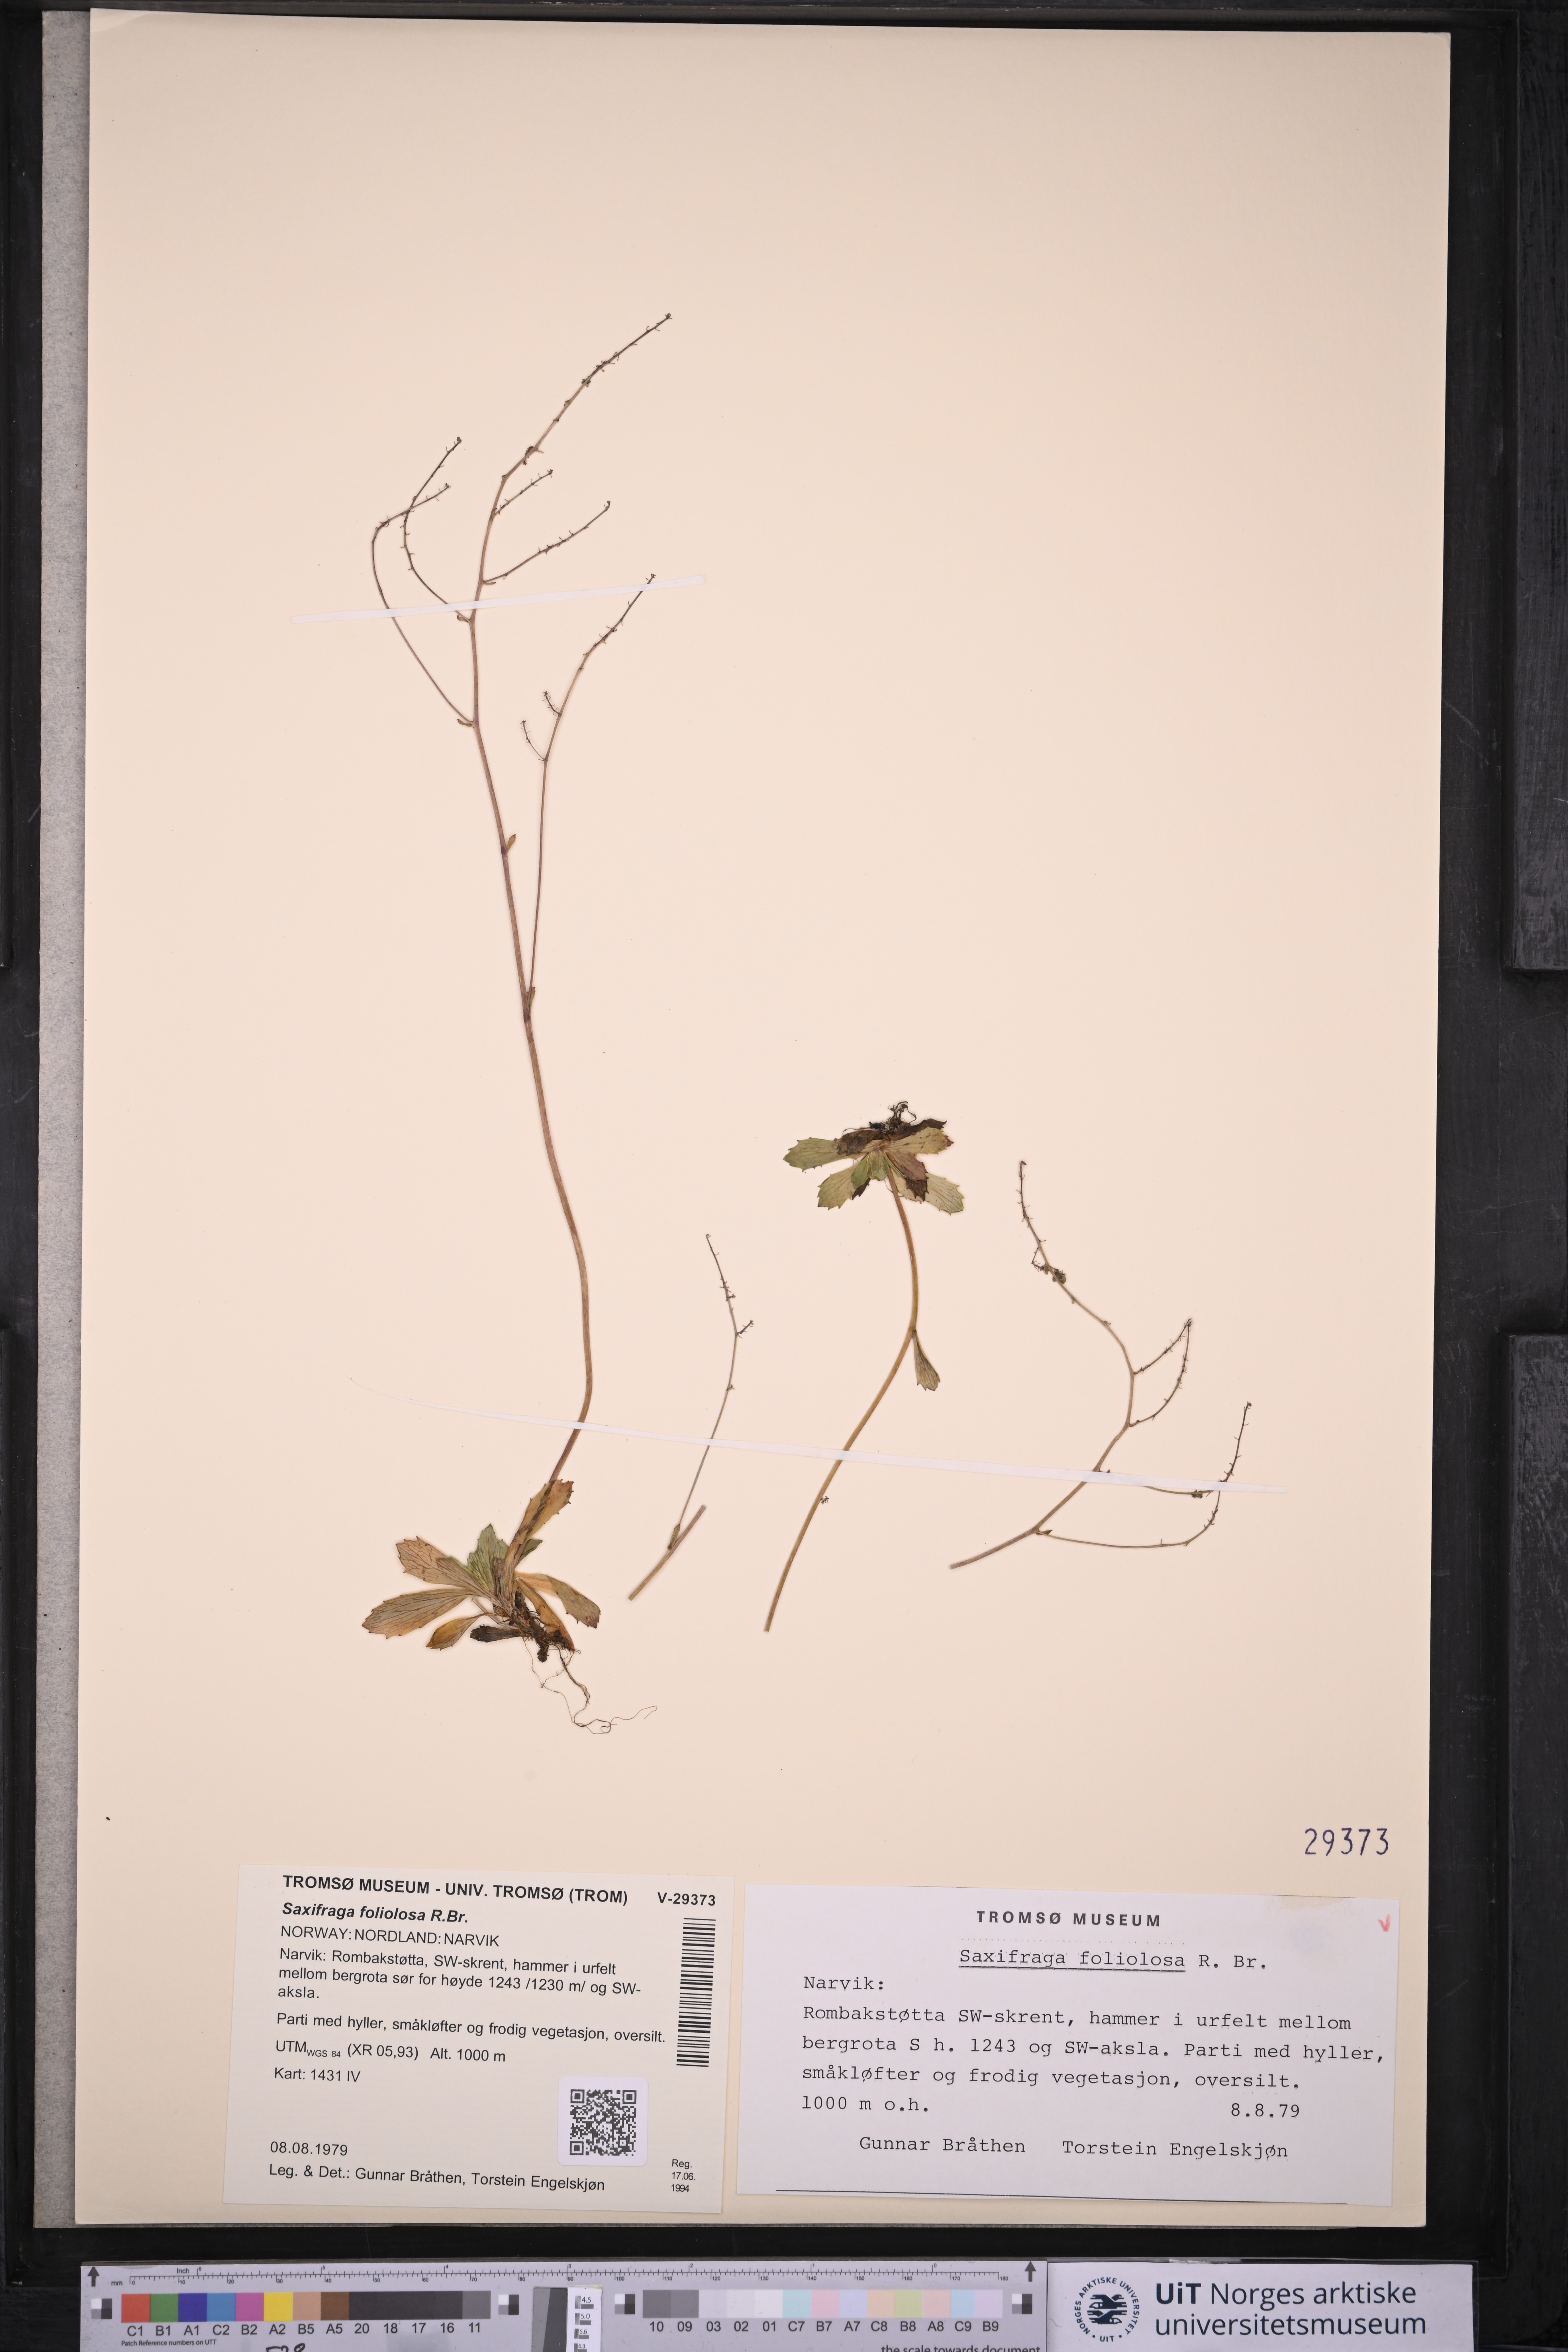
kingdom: Plantae
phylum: Tracheophyta
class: Magnoliopsida
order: Saxifragales
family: Saxifragaceae
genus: Micranthes
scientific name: Micranthes foliolosa
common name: Leafystem saxifrage
